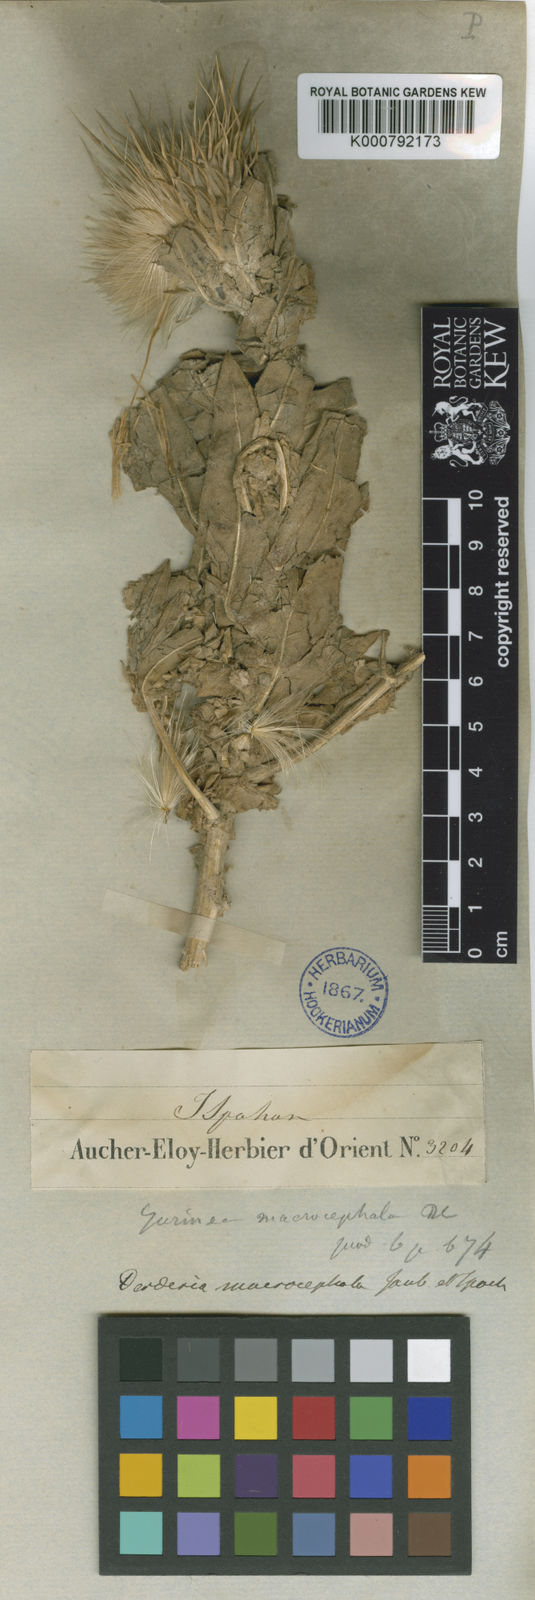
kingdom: Plantae
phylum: Tracheophyta
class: Magnoliopsida
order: Asterales
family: Asteraceae
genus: Jurinea
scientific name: Jurinea macrocephala
